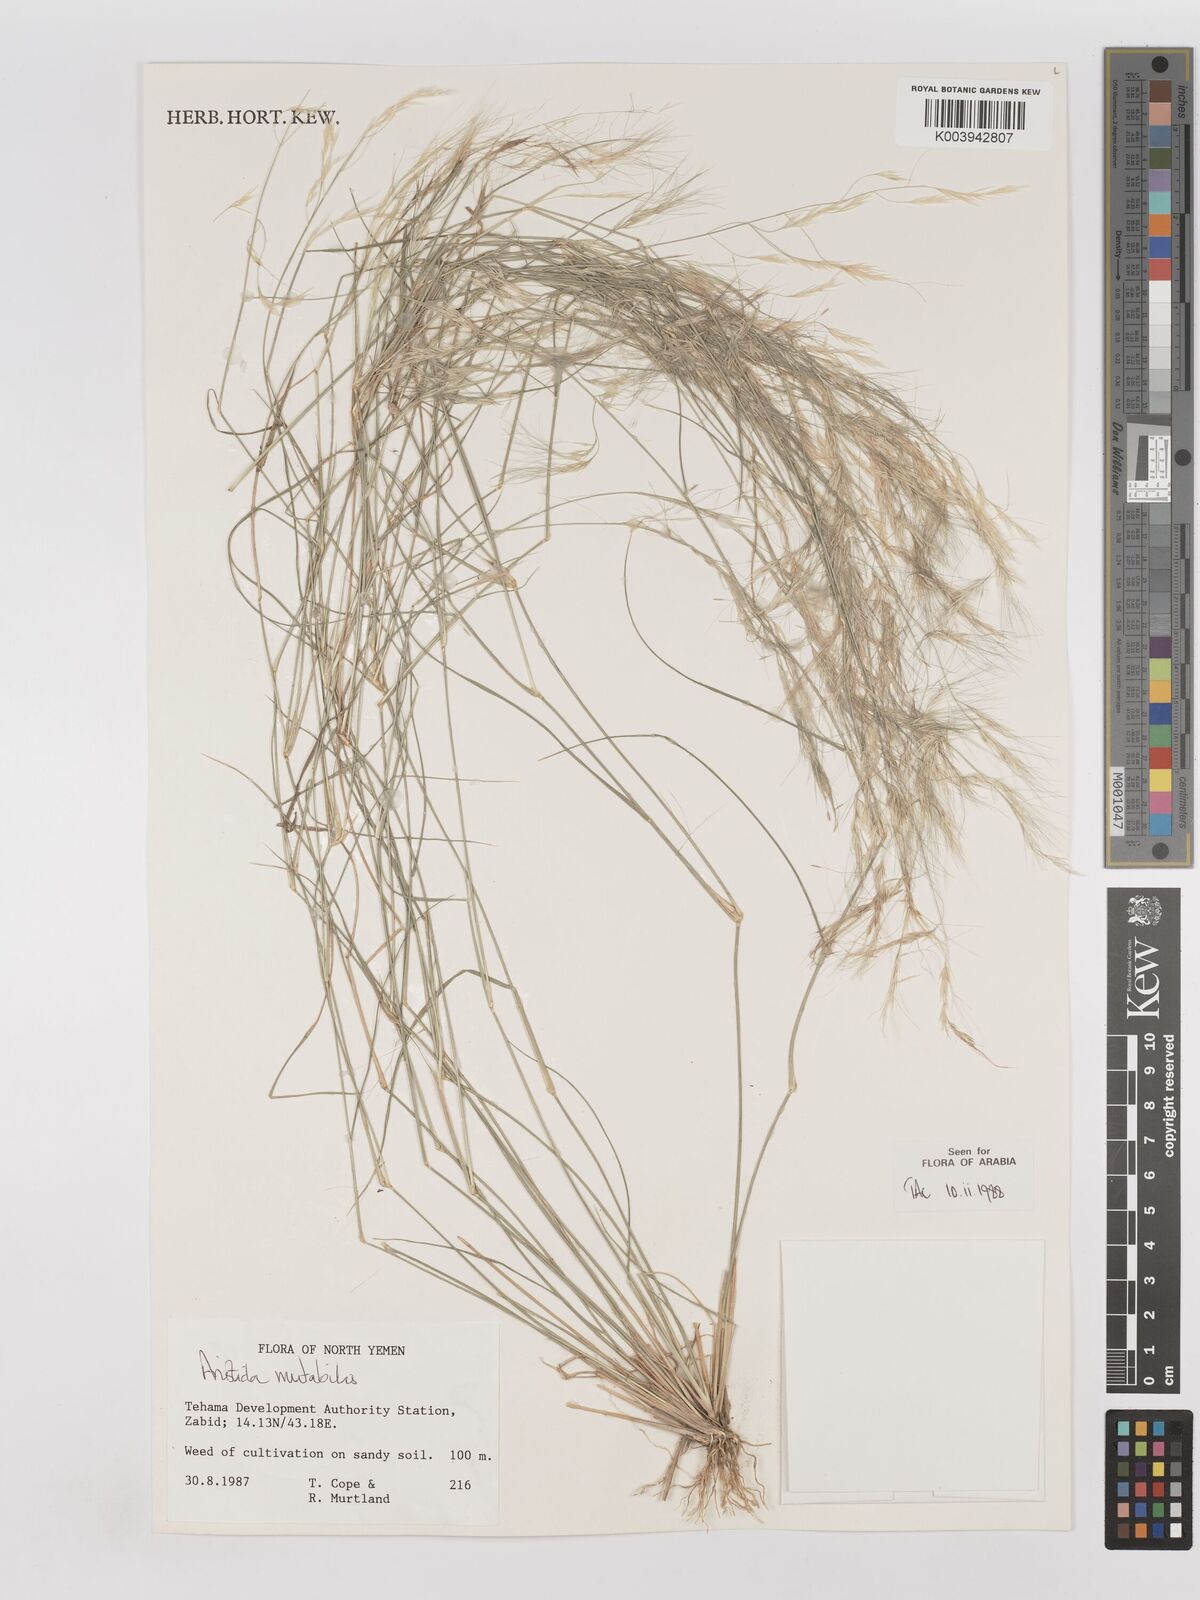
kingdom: Plantae
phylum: Tracheophyta
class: Liliopsida
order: Poales
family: Poaceae
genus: Aristida
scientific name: Aristida mutabilis
